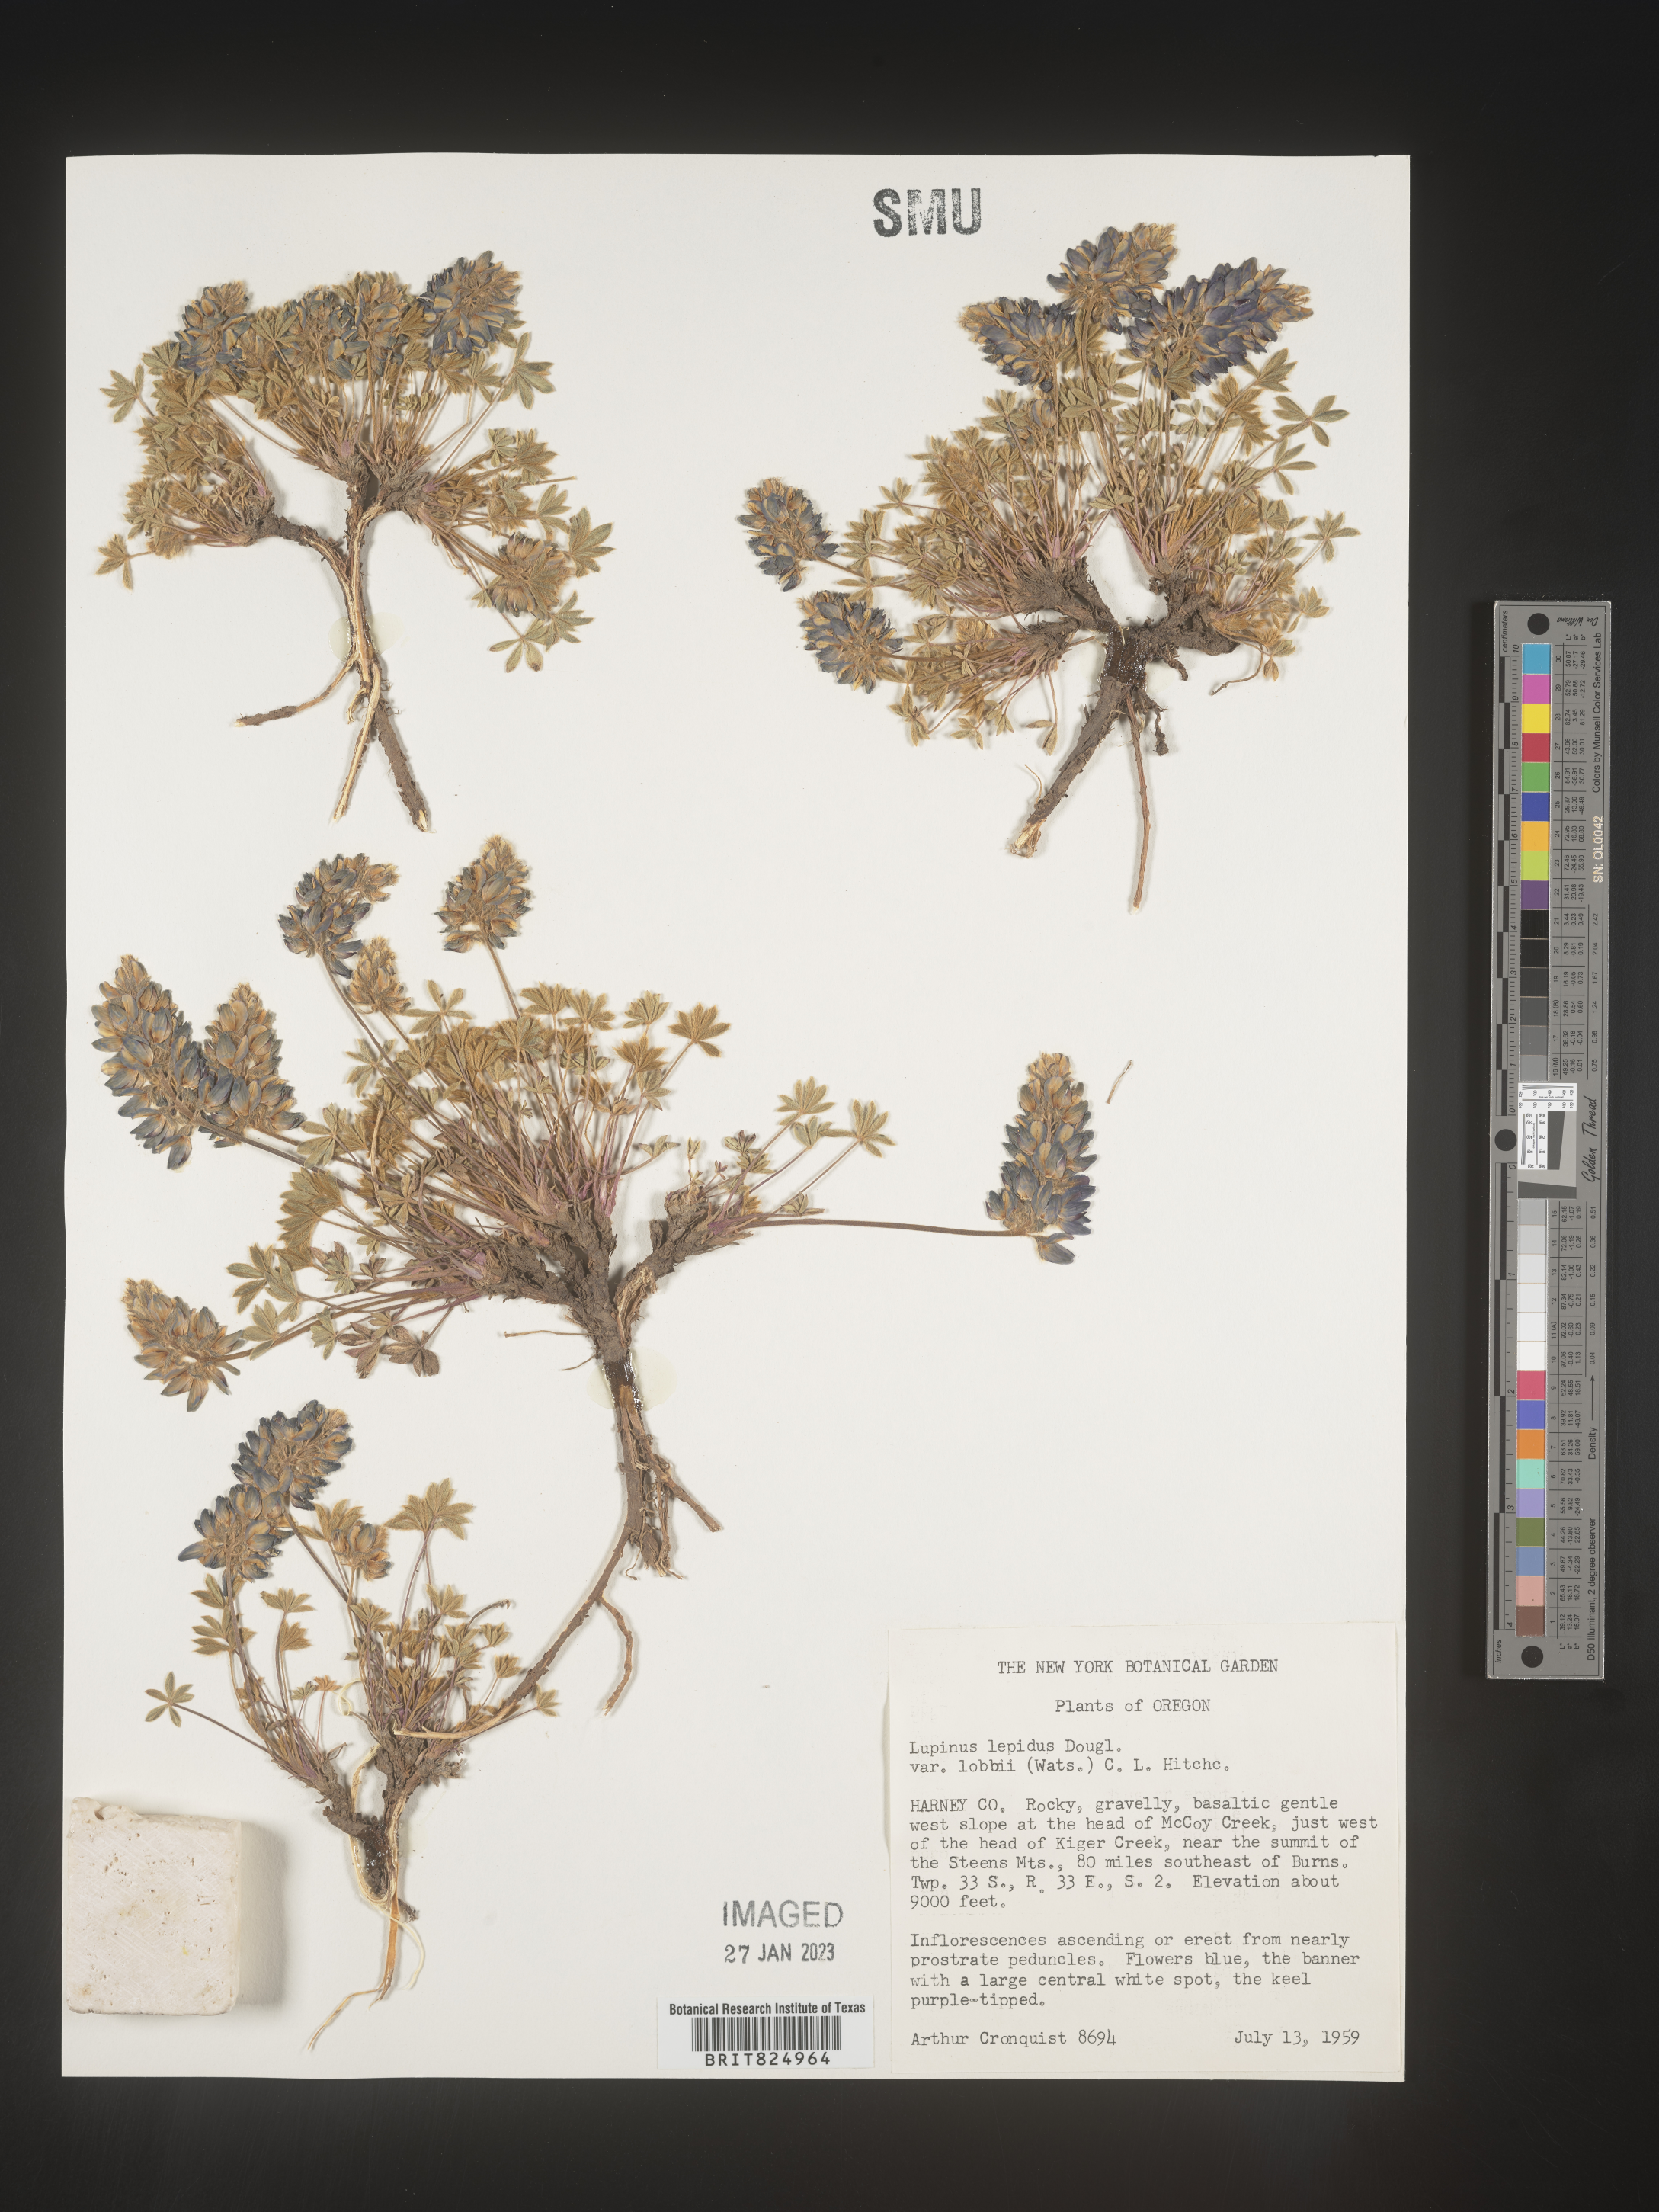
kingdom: Plantae
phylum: Tracheophyta
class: Magnoliopsida
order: Fabales
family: Fabaceae
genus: Lupinus
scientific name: Lupinus
